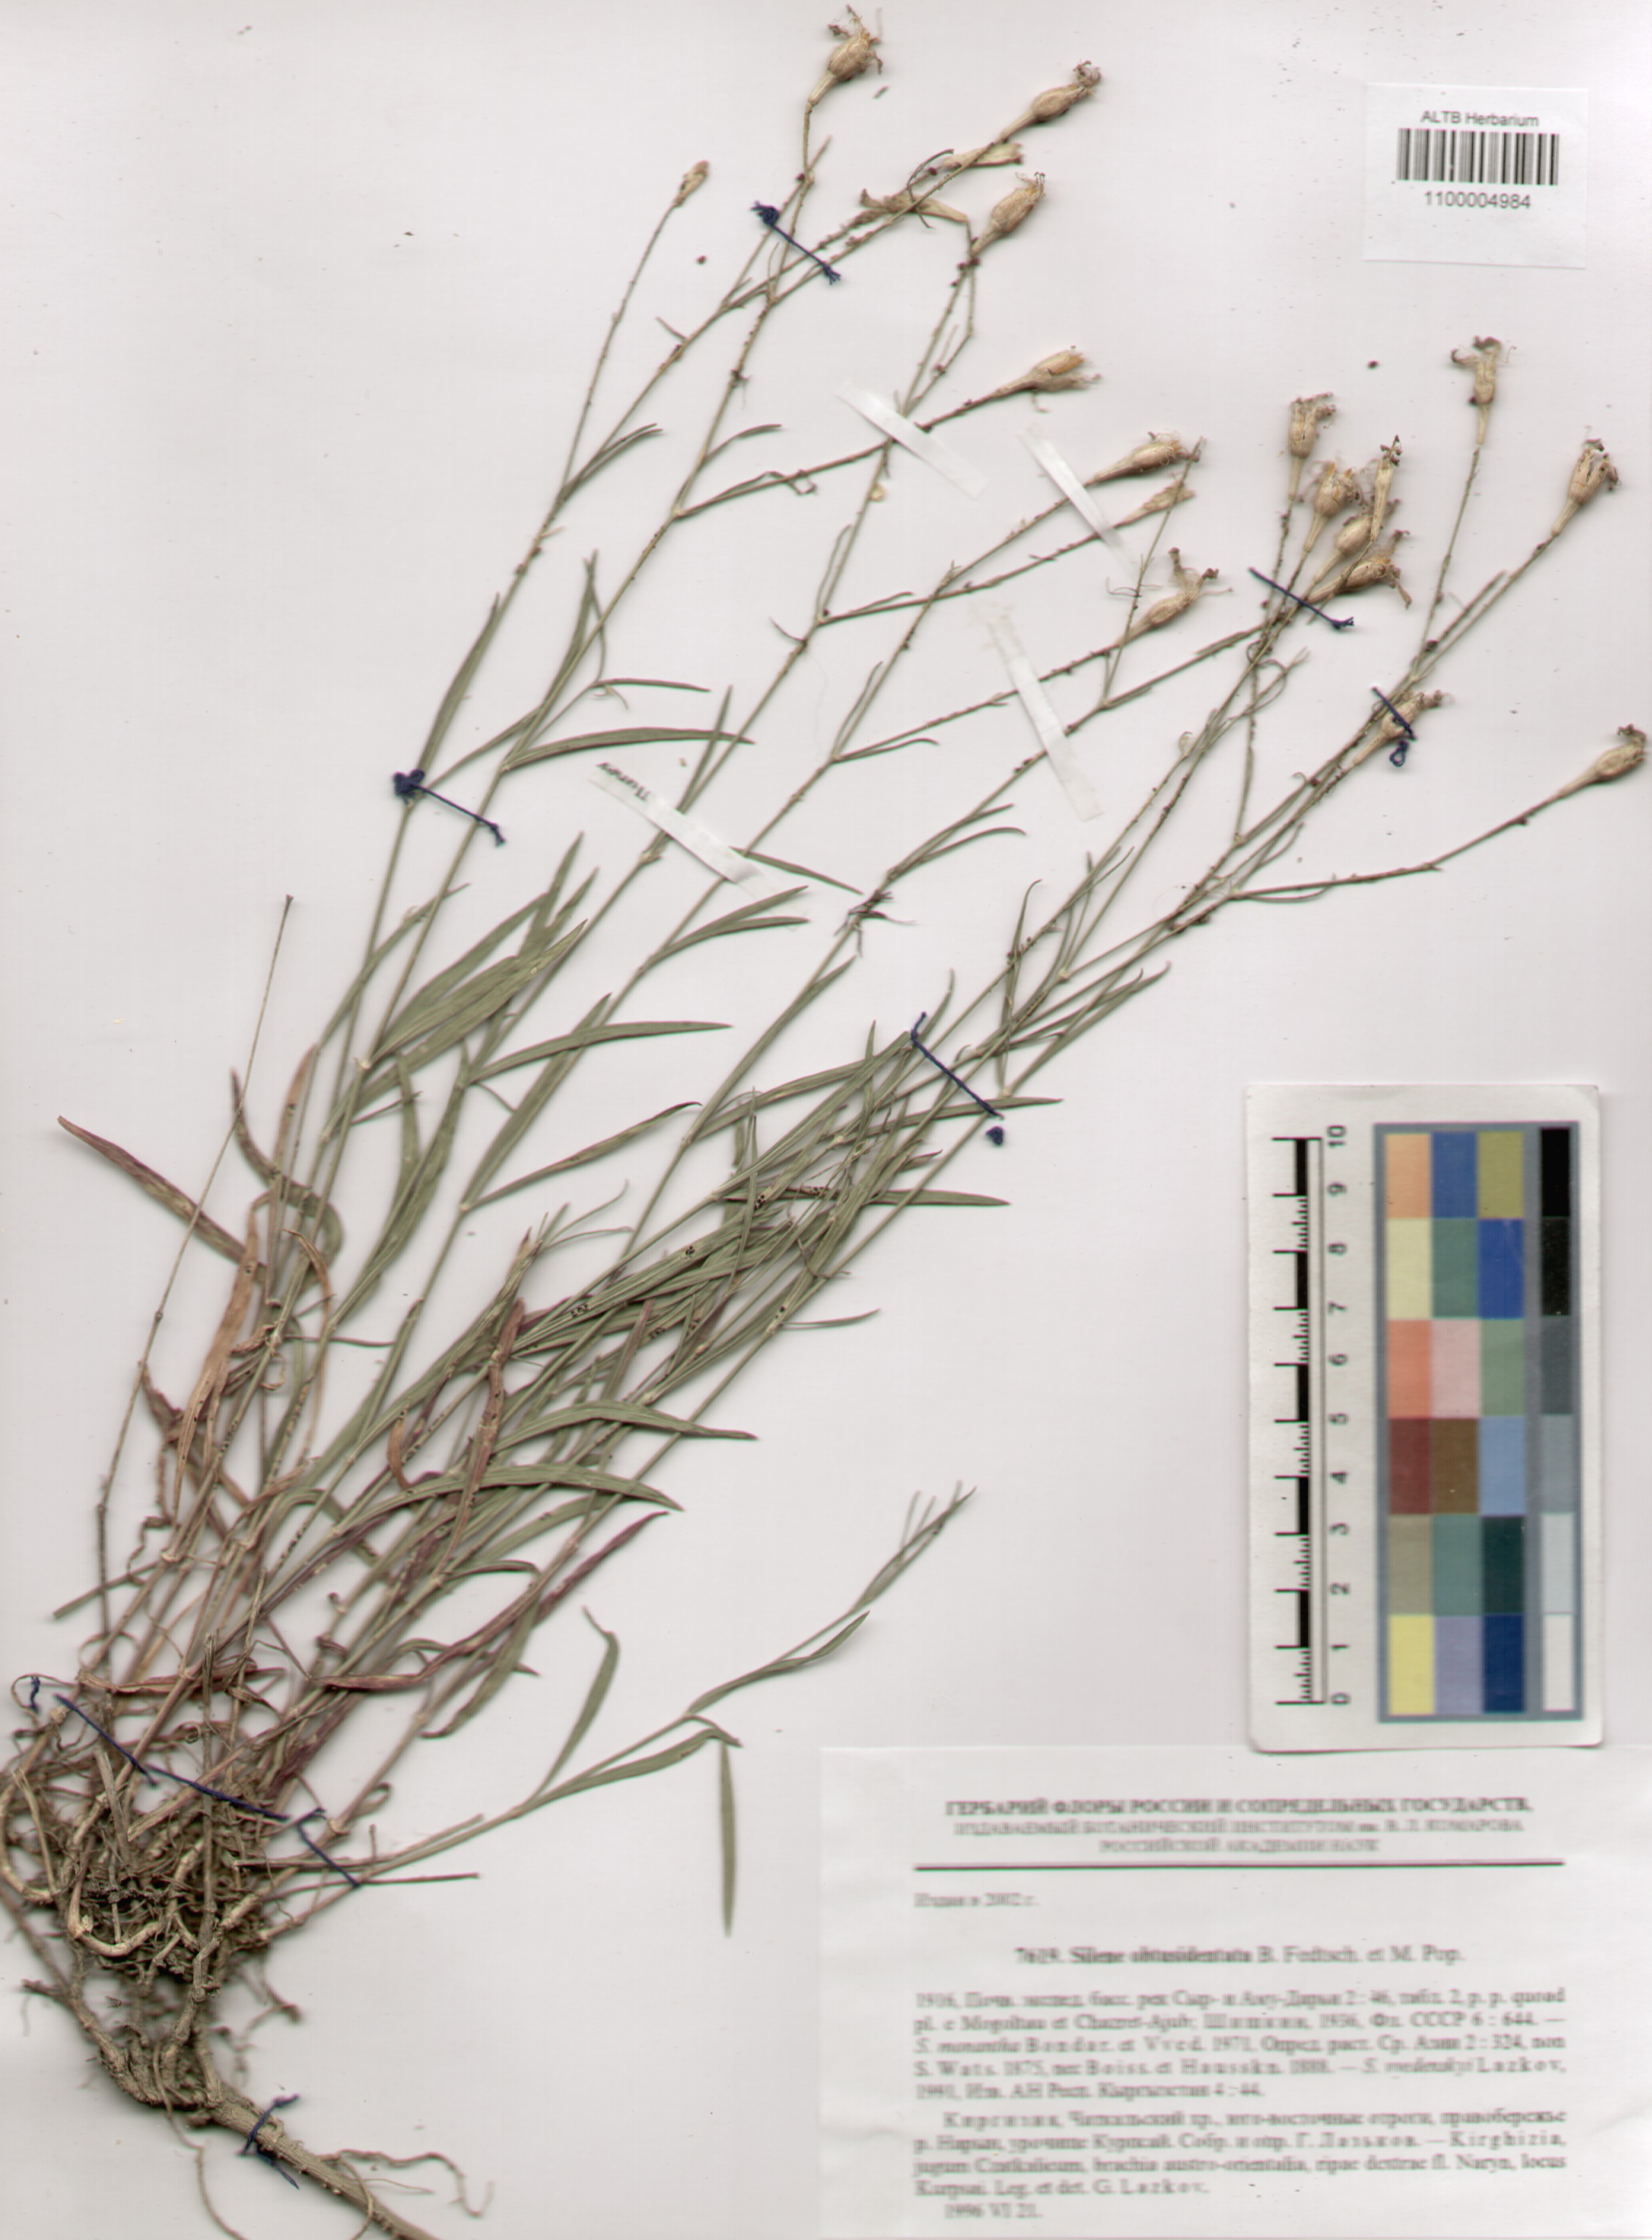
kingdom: Plantae
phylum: Tracheophyta
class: Magnoliopsida
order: Caryophyllales
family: Caryophyllaceae
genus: Silene
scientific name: Silene obtusidentata
